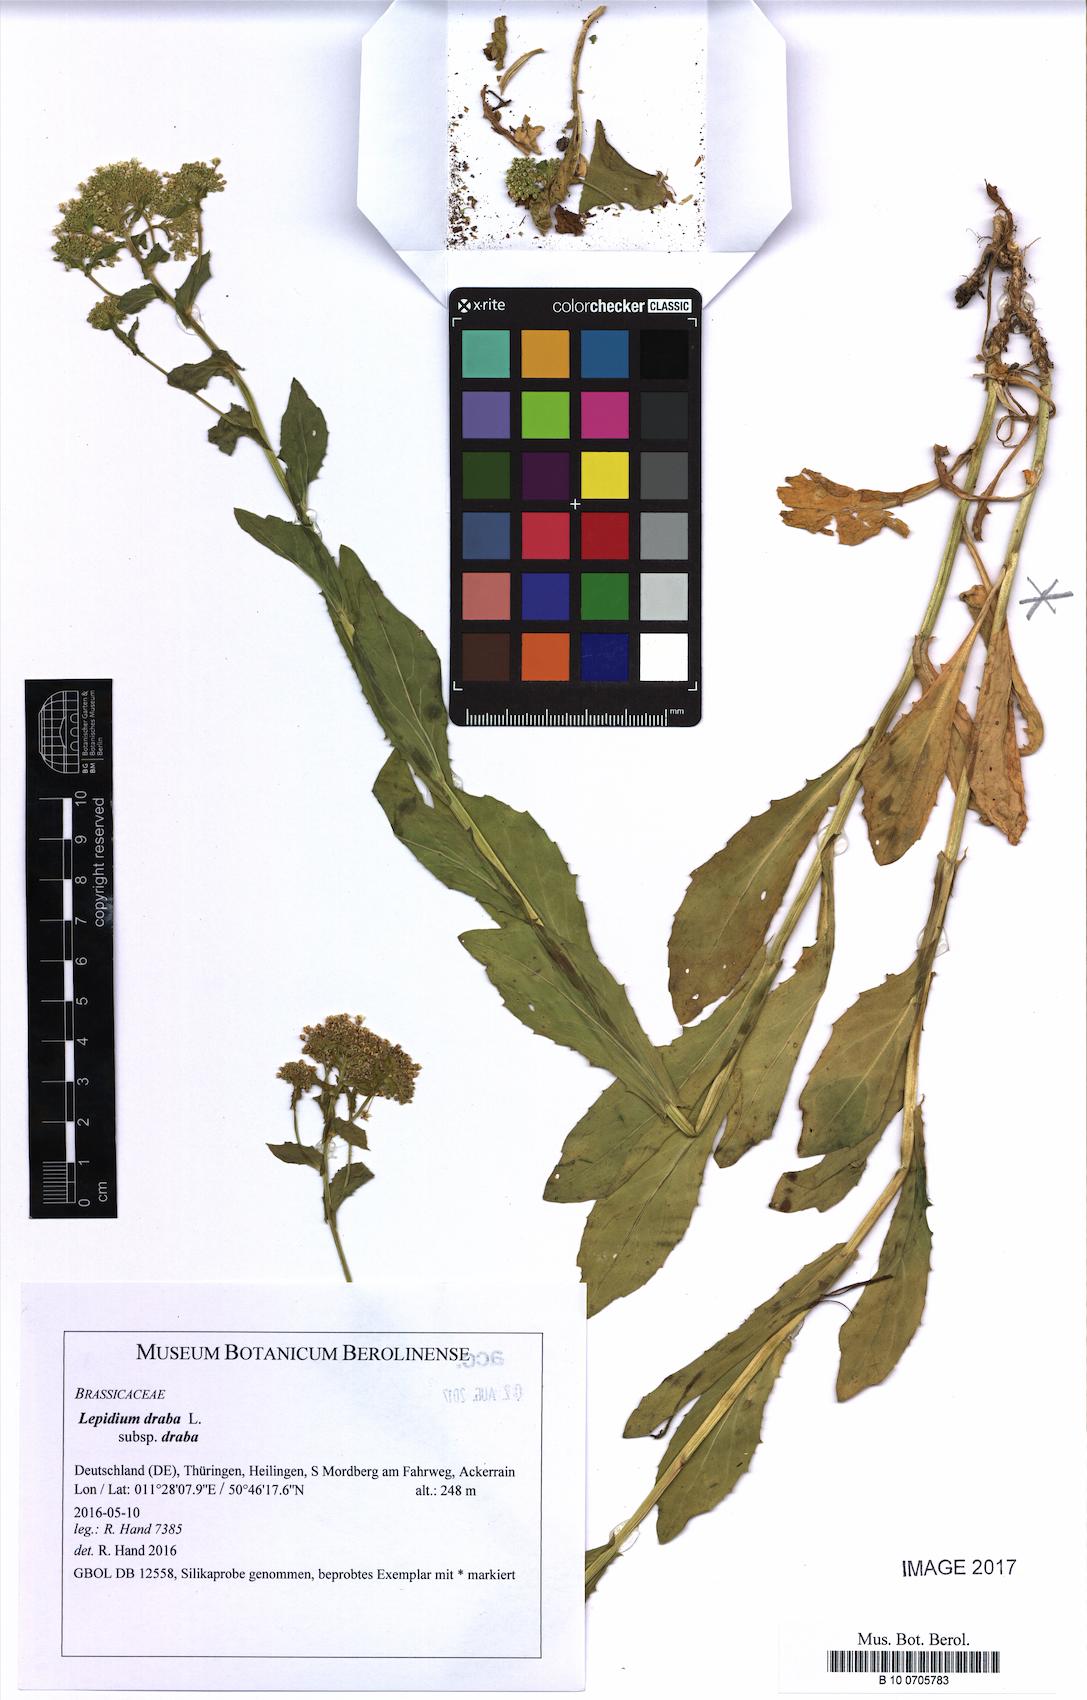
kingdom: Plantae
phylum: Tracheophyta
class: Magnoliopsida
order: Brassicales
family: Brassicaceae
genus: Lepidium
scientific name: Lepidium draba
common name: Hoary cress
